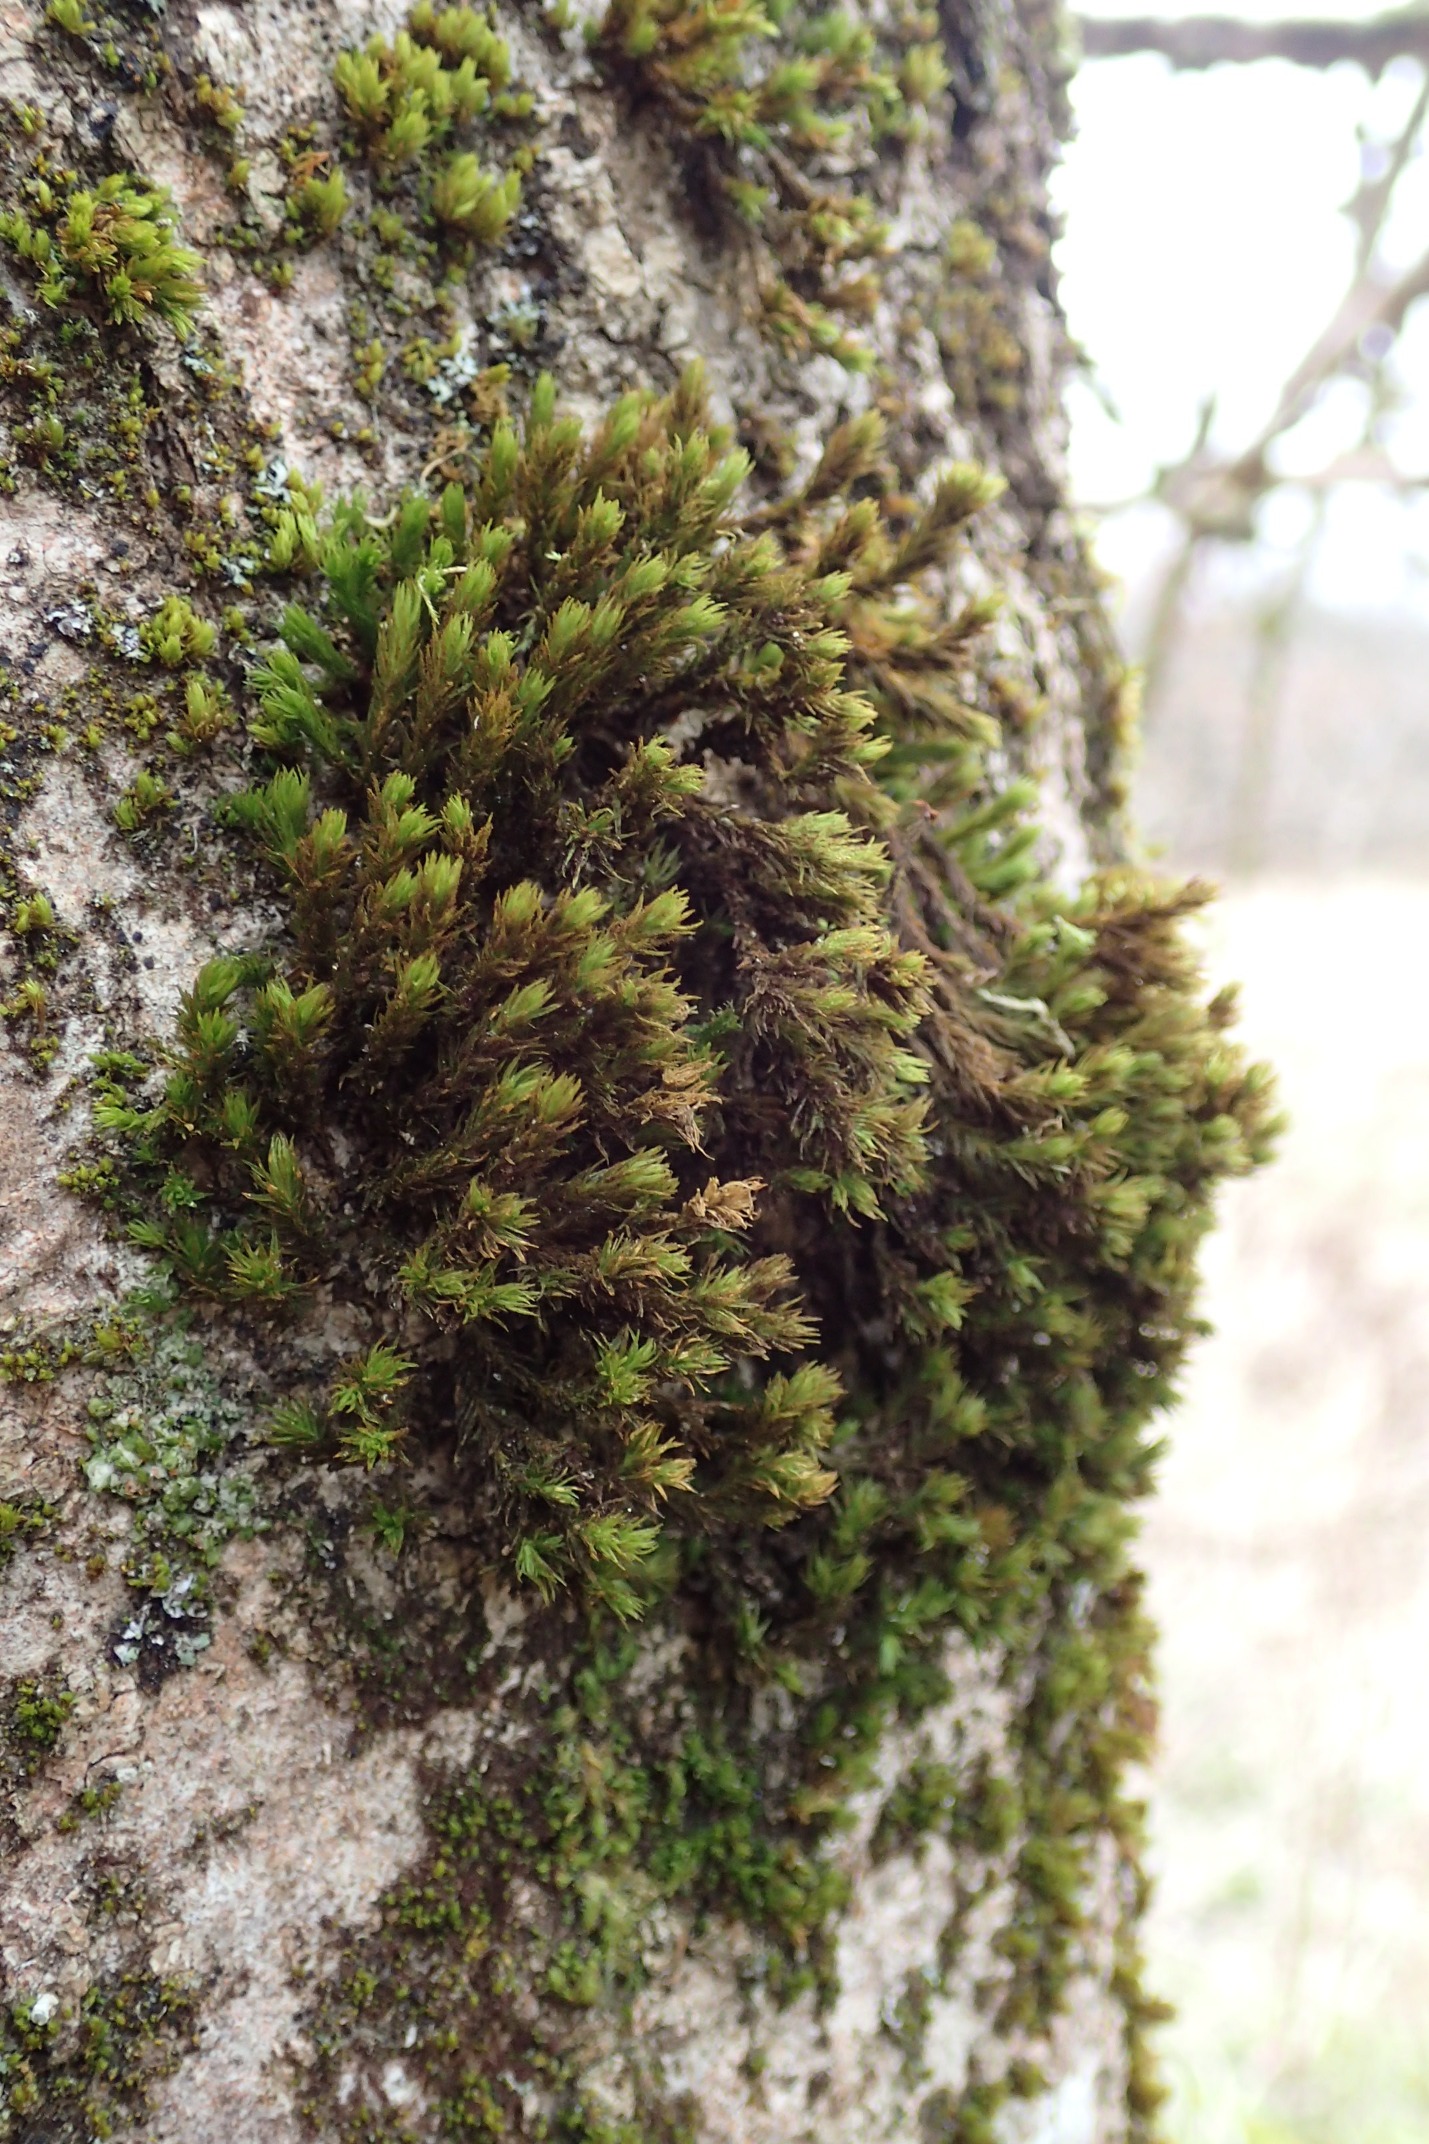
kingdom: Plantae
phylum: Bryophyta
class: Bryopsida
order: Orthotrichales
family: Orthotrichaceae
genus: Pulvigera
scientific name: Pulvigera lyellii
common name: Stor furehætte
